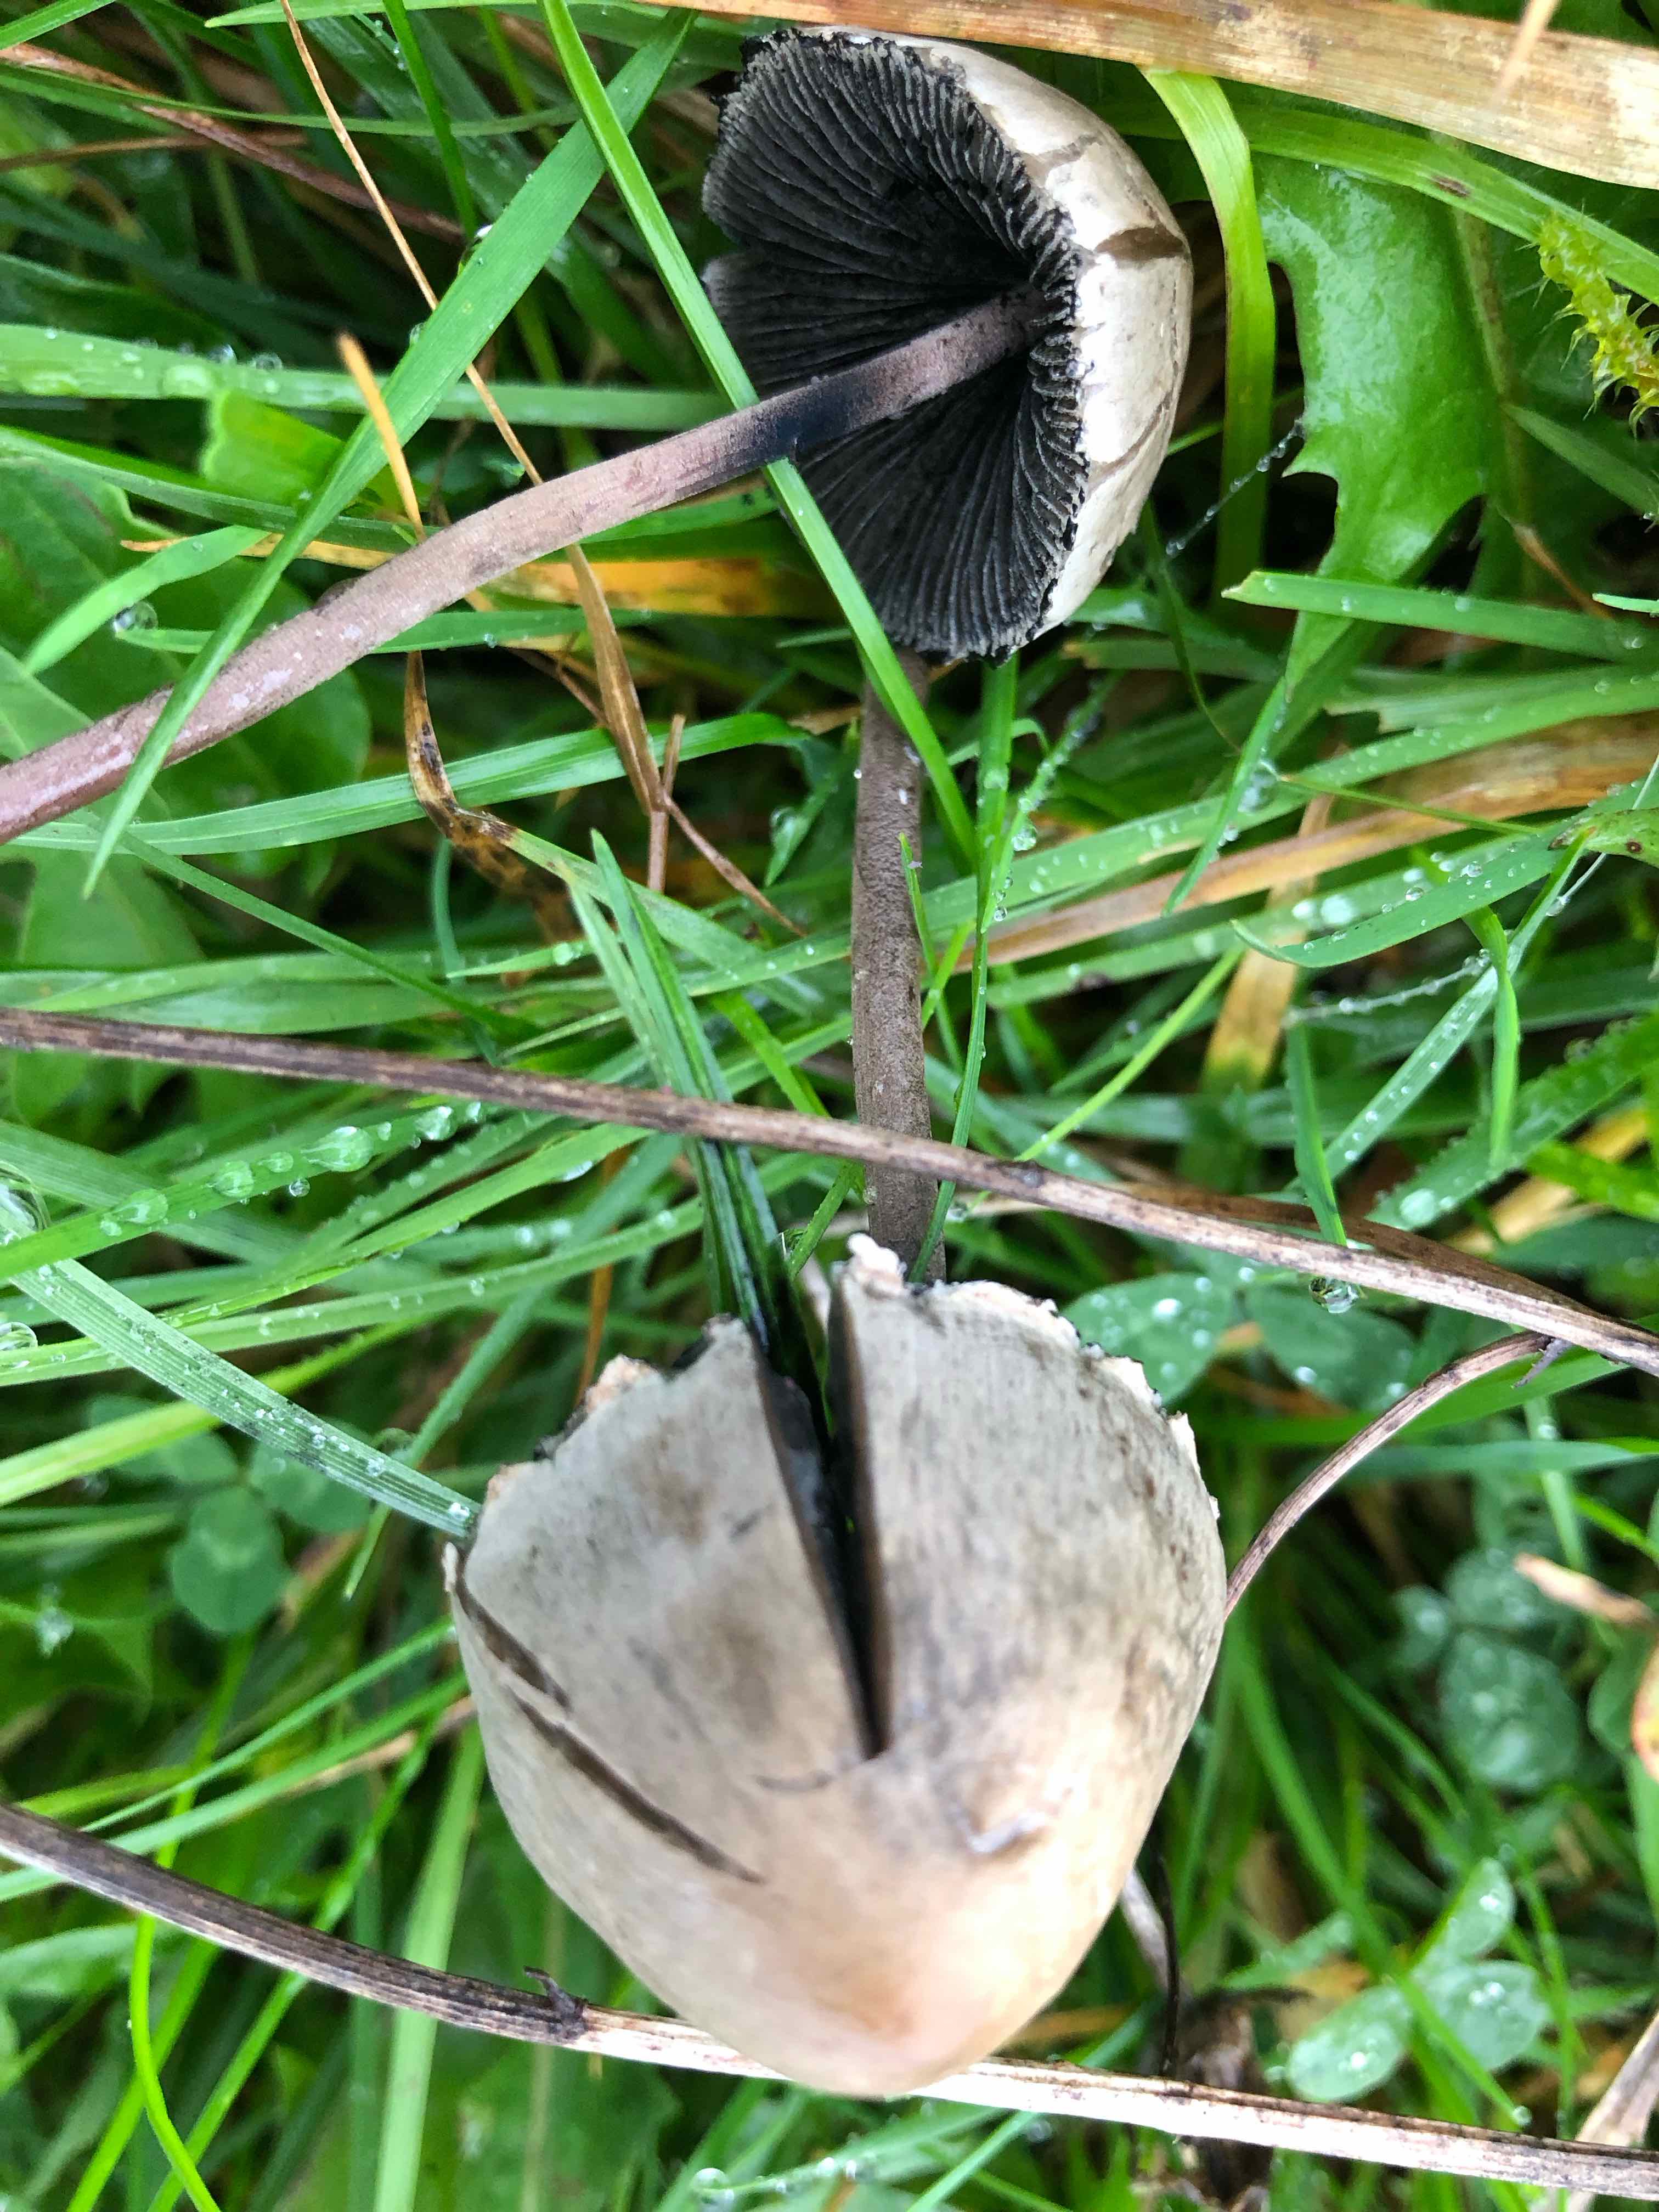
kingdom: Fungi
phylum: Basidiomycota
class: Agaricomycetes
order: Agaricales
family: Bolbitiaceae
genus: Panaeolus
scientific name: Panaeolus papilionaceus
